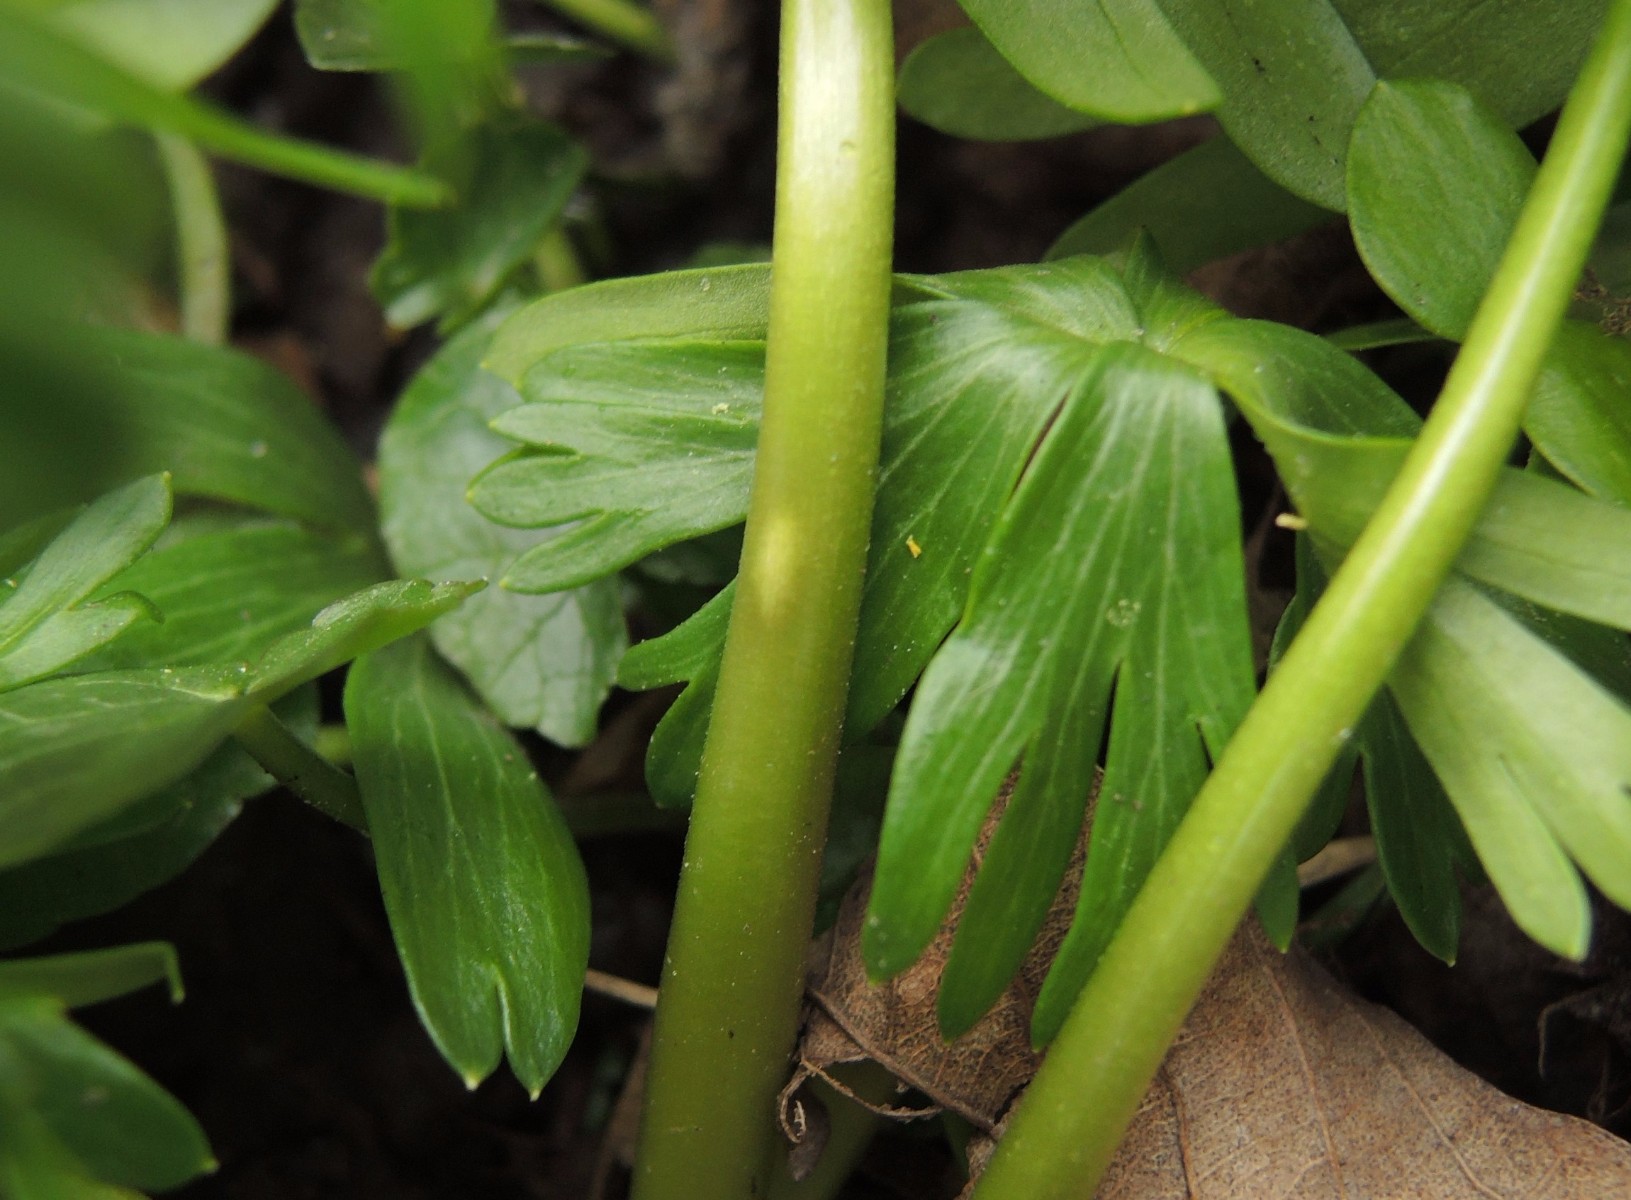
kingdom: Fungi
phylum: Basidiomycota
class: Ustilaginomycetes
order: Urocystidales
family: Urocystidaceae
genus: Urocystis
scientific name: Urocystis eranthidis
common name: erantis-brand
